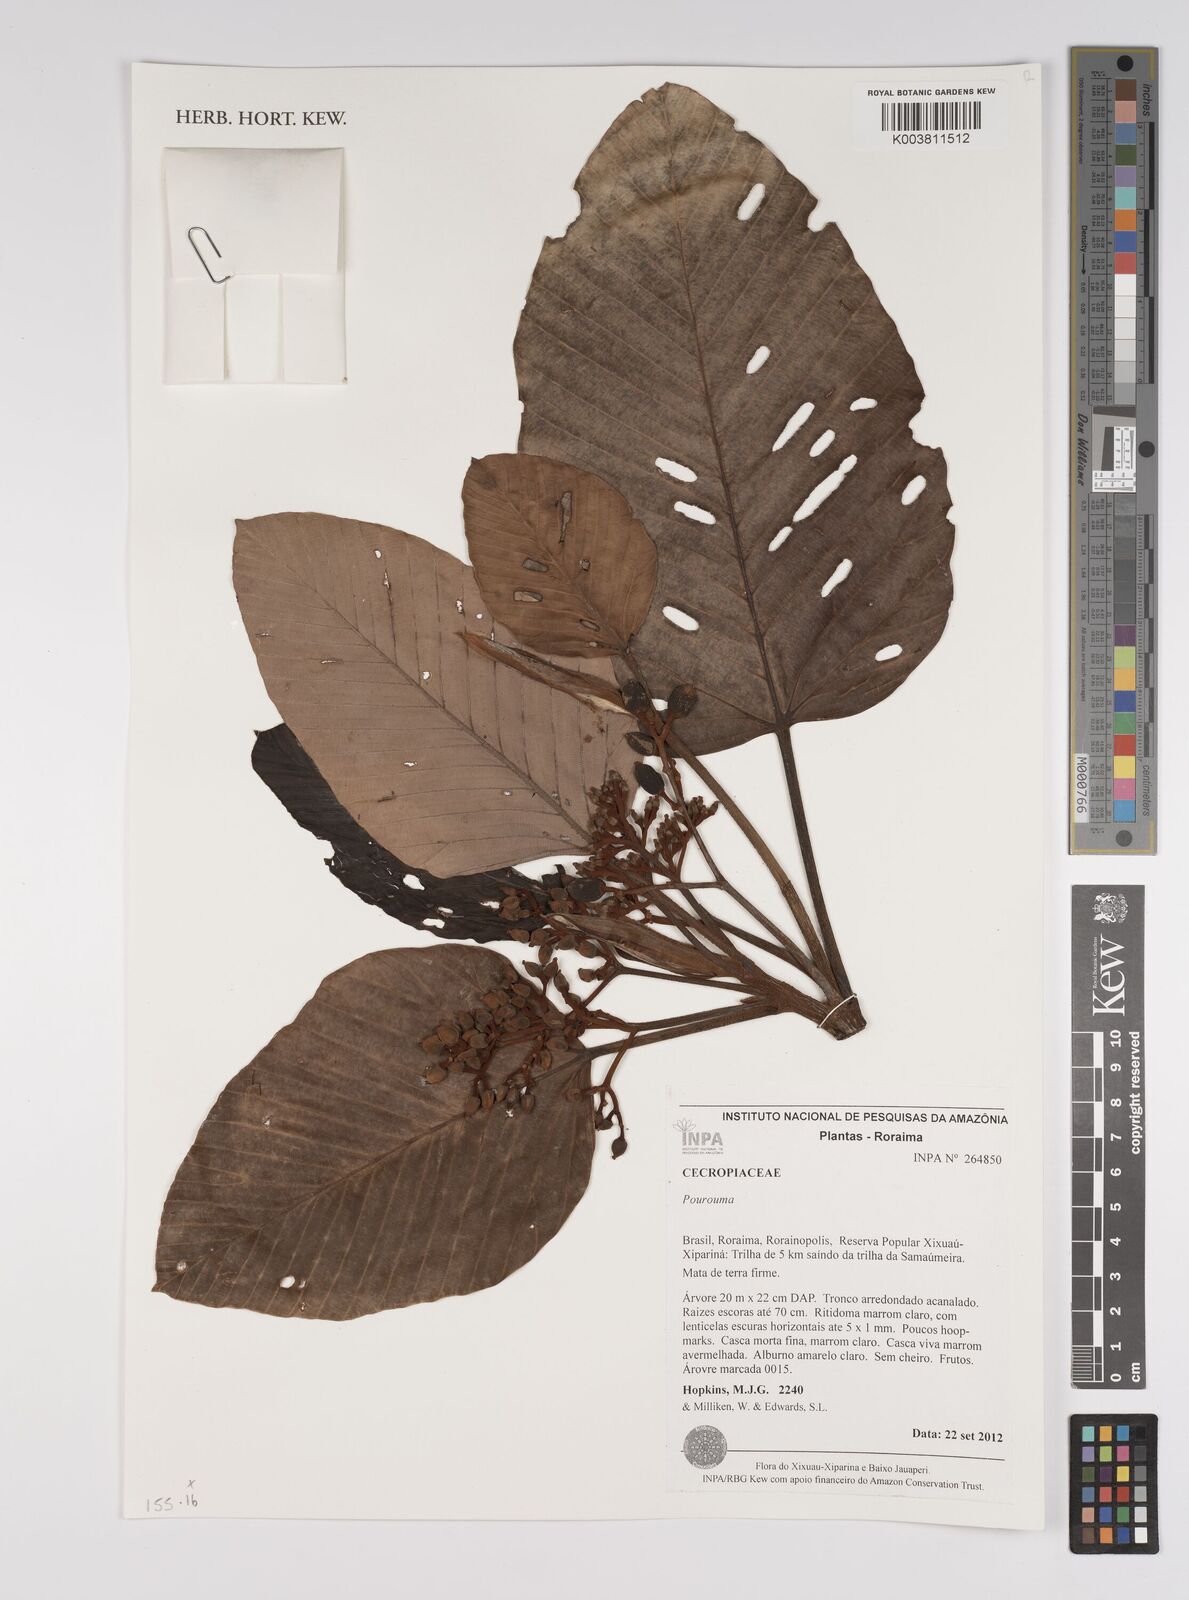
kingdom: Plantae
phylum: Tracheophyta
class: Magnoliopsida
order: Rosales
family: Urticaceae
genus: Pourouma
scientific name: Pourouma
